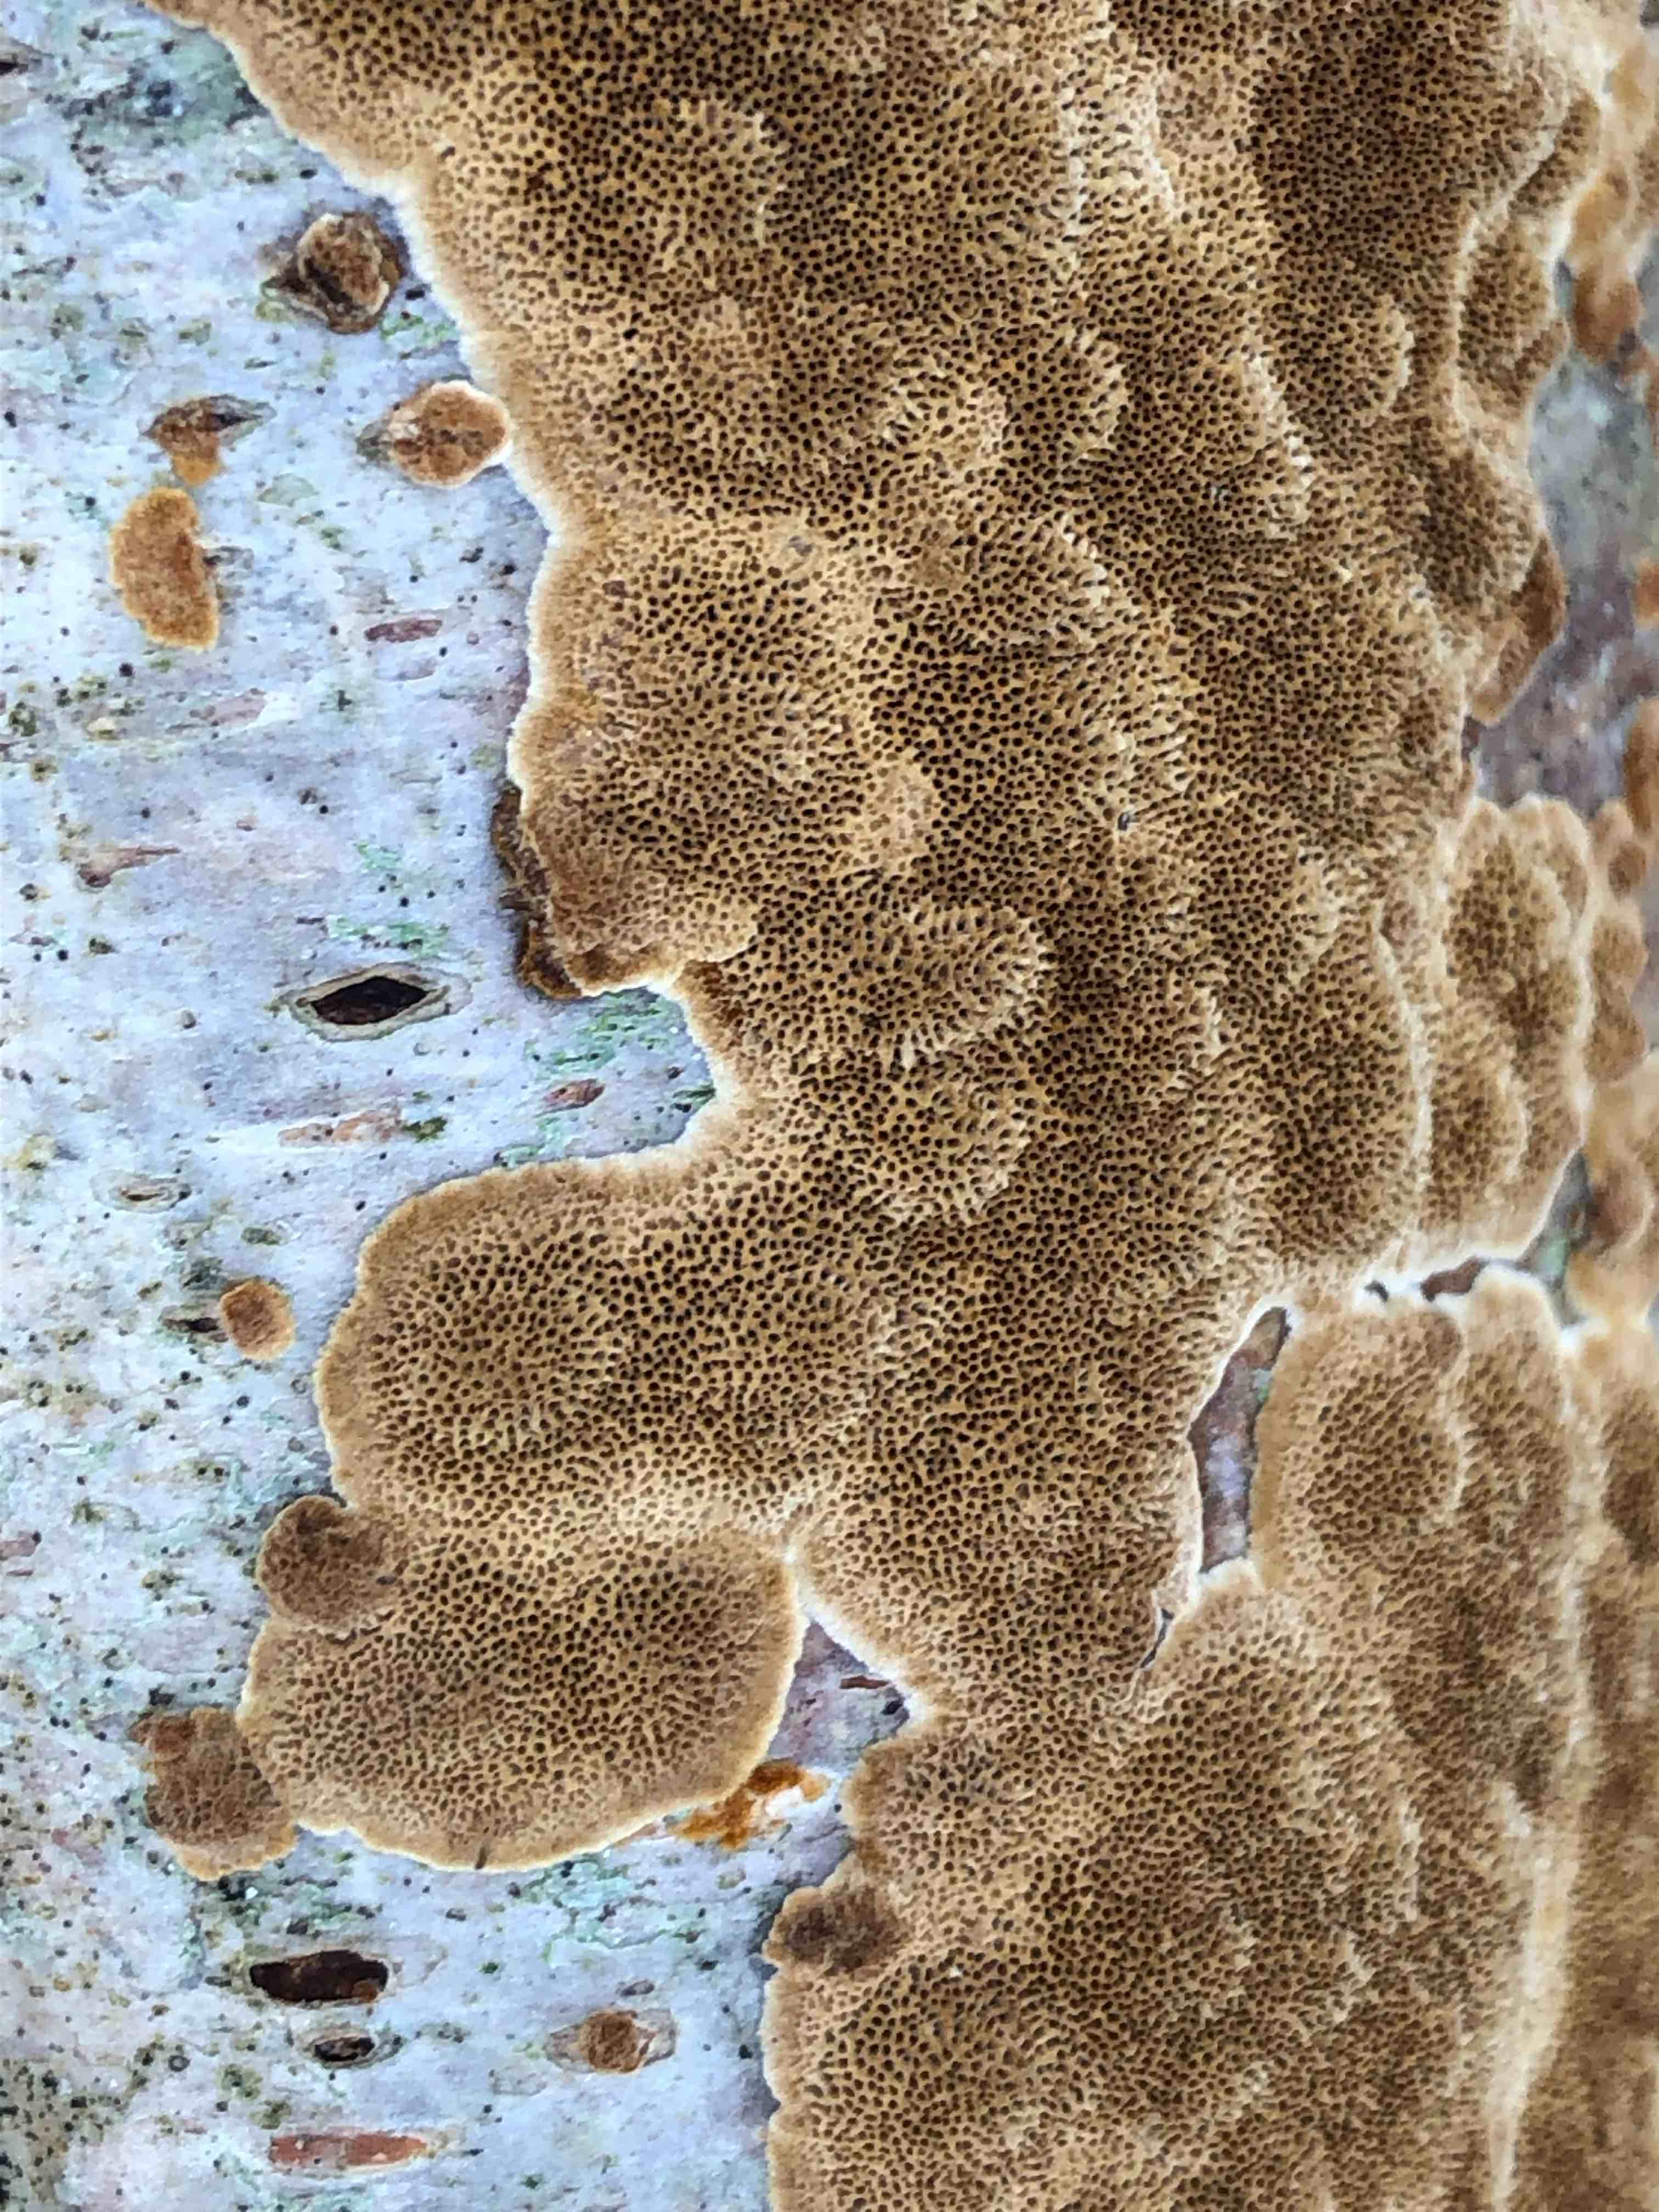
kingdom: Fungi
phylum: Basidiomycota
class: Agaricomycetes
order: Hymenochaetales
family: Hymenochaetaceae
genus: Fuscoporia
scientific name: Fuscoporia ferrea
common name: skorpe-ildporesvamp
